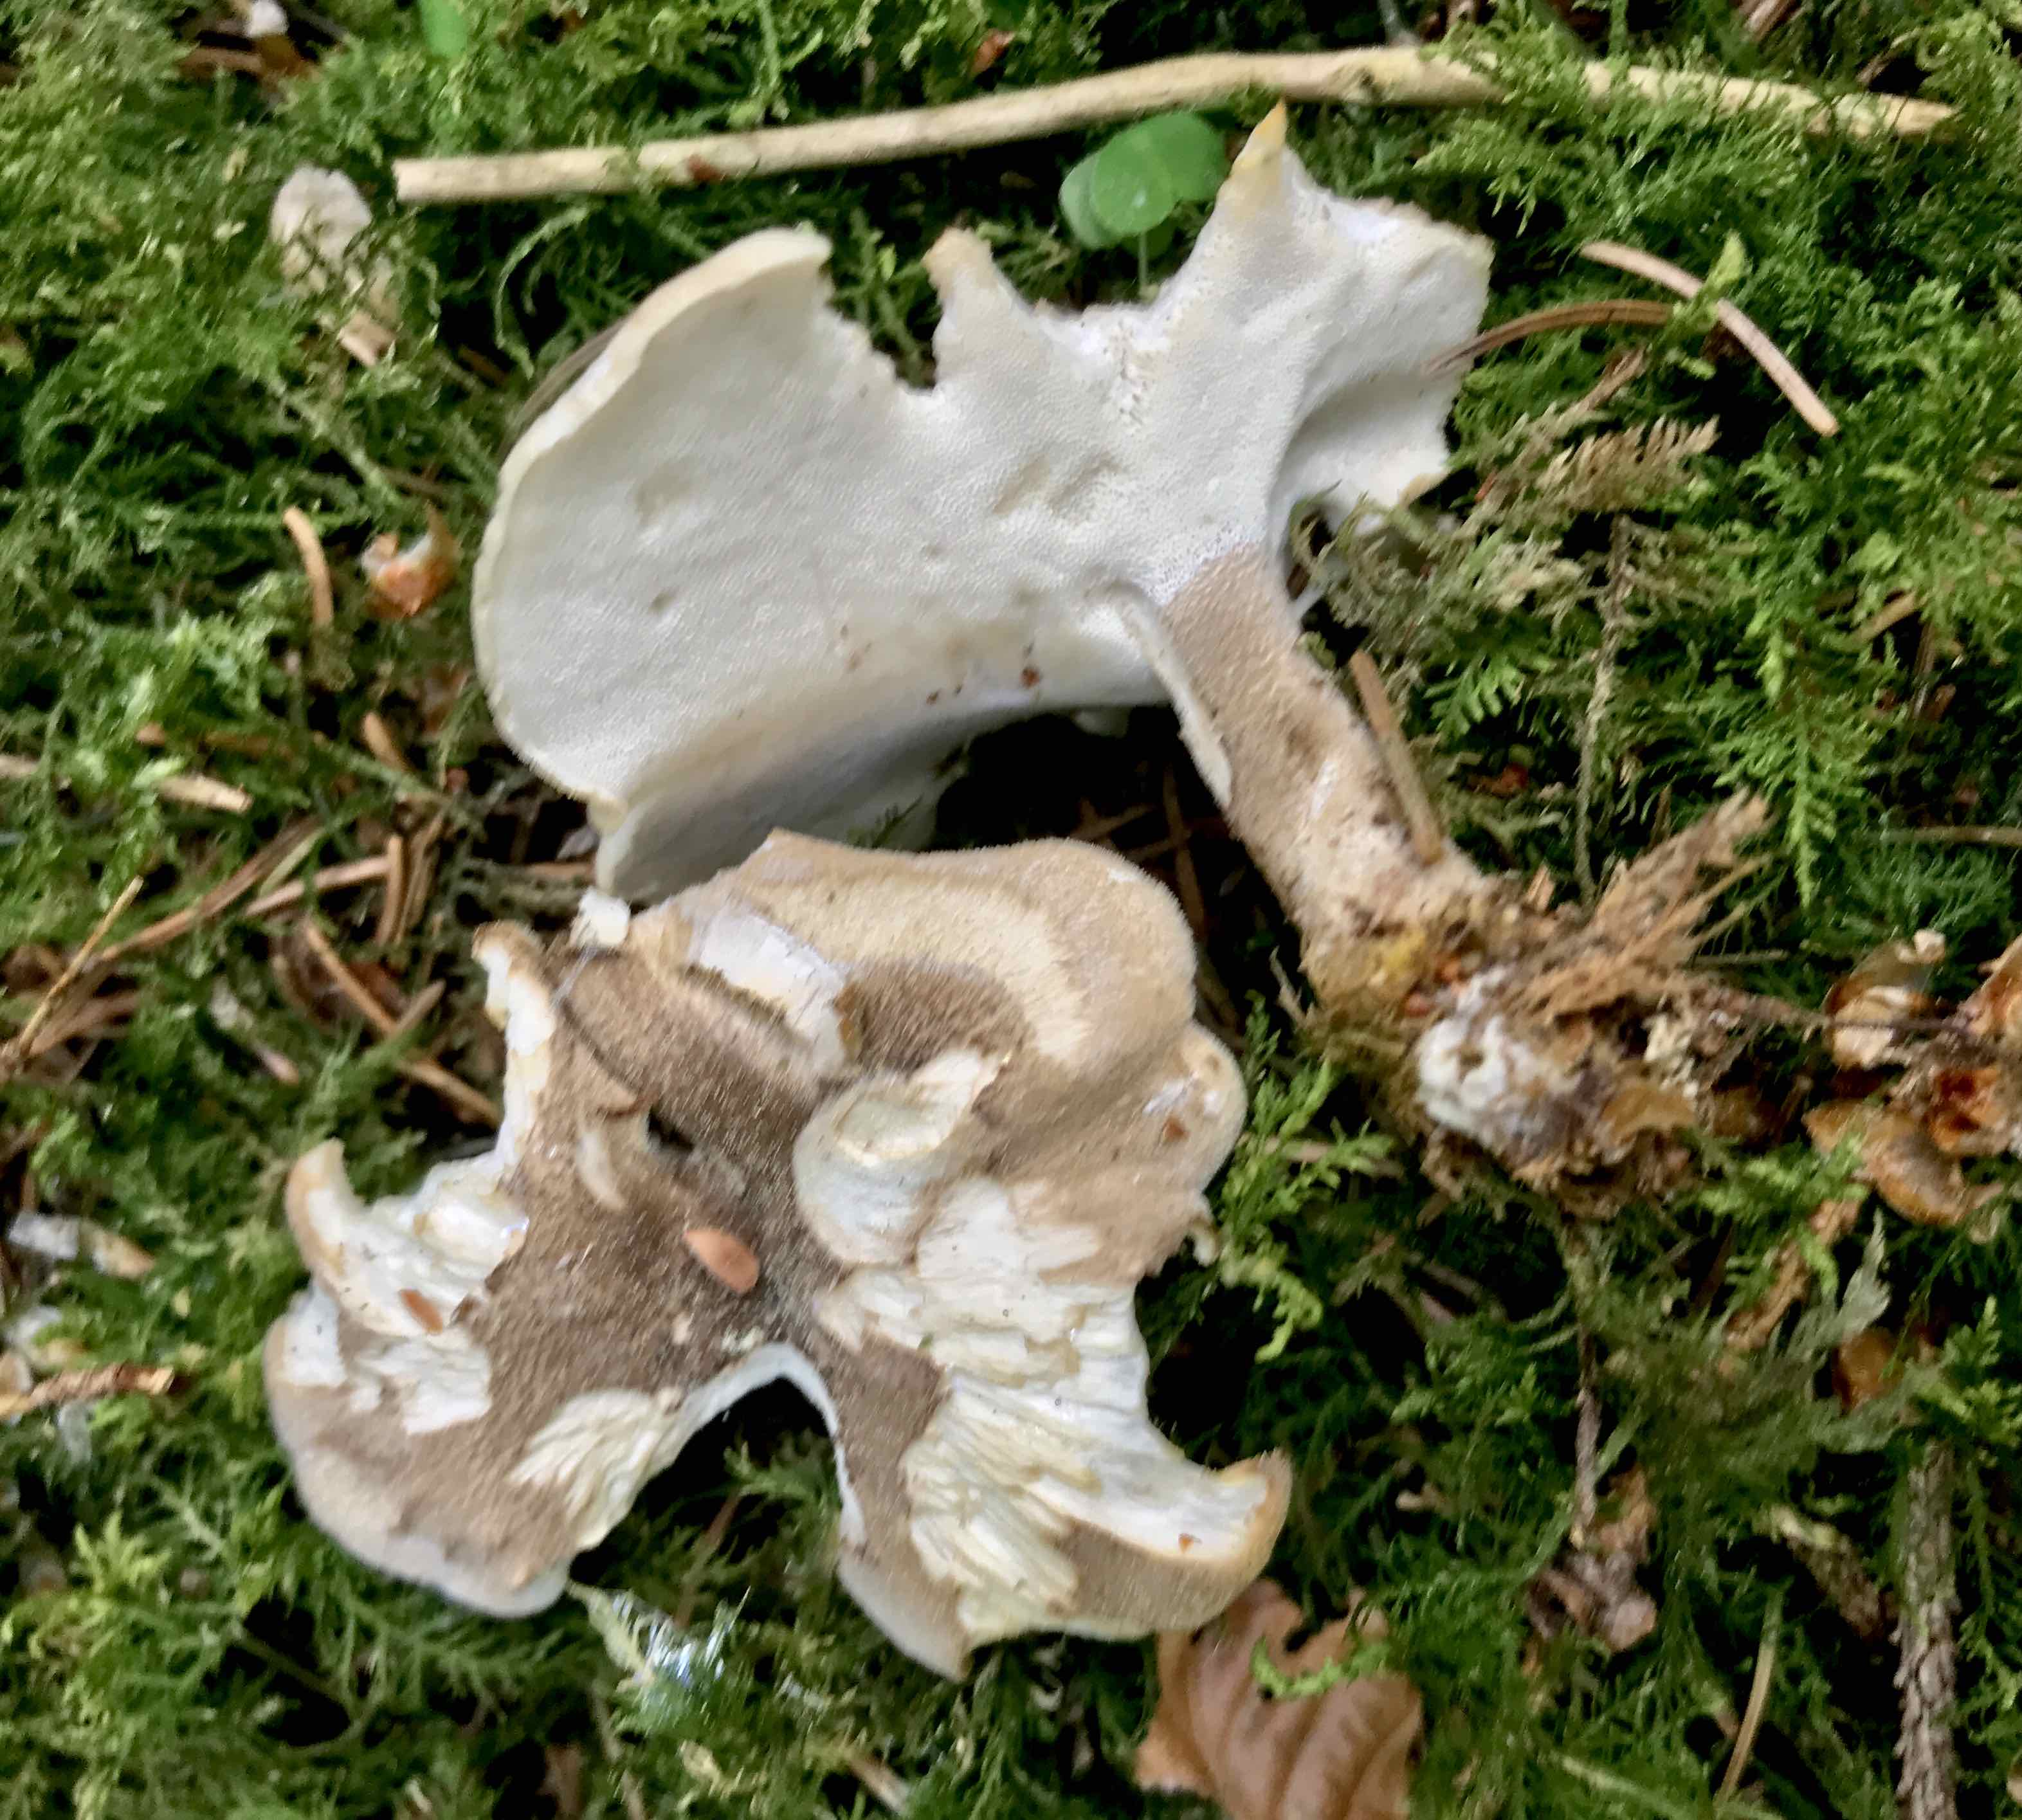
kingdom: Fungi
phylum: Basidiomycota
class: Agaricomycetes
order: Polyporales
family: Polyporaceae
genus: Lentinus
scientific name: Lentinus substrictus
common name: forårs-stilkporesvamp
